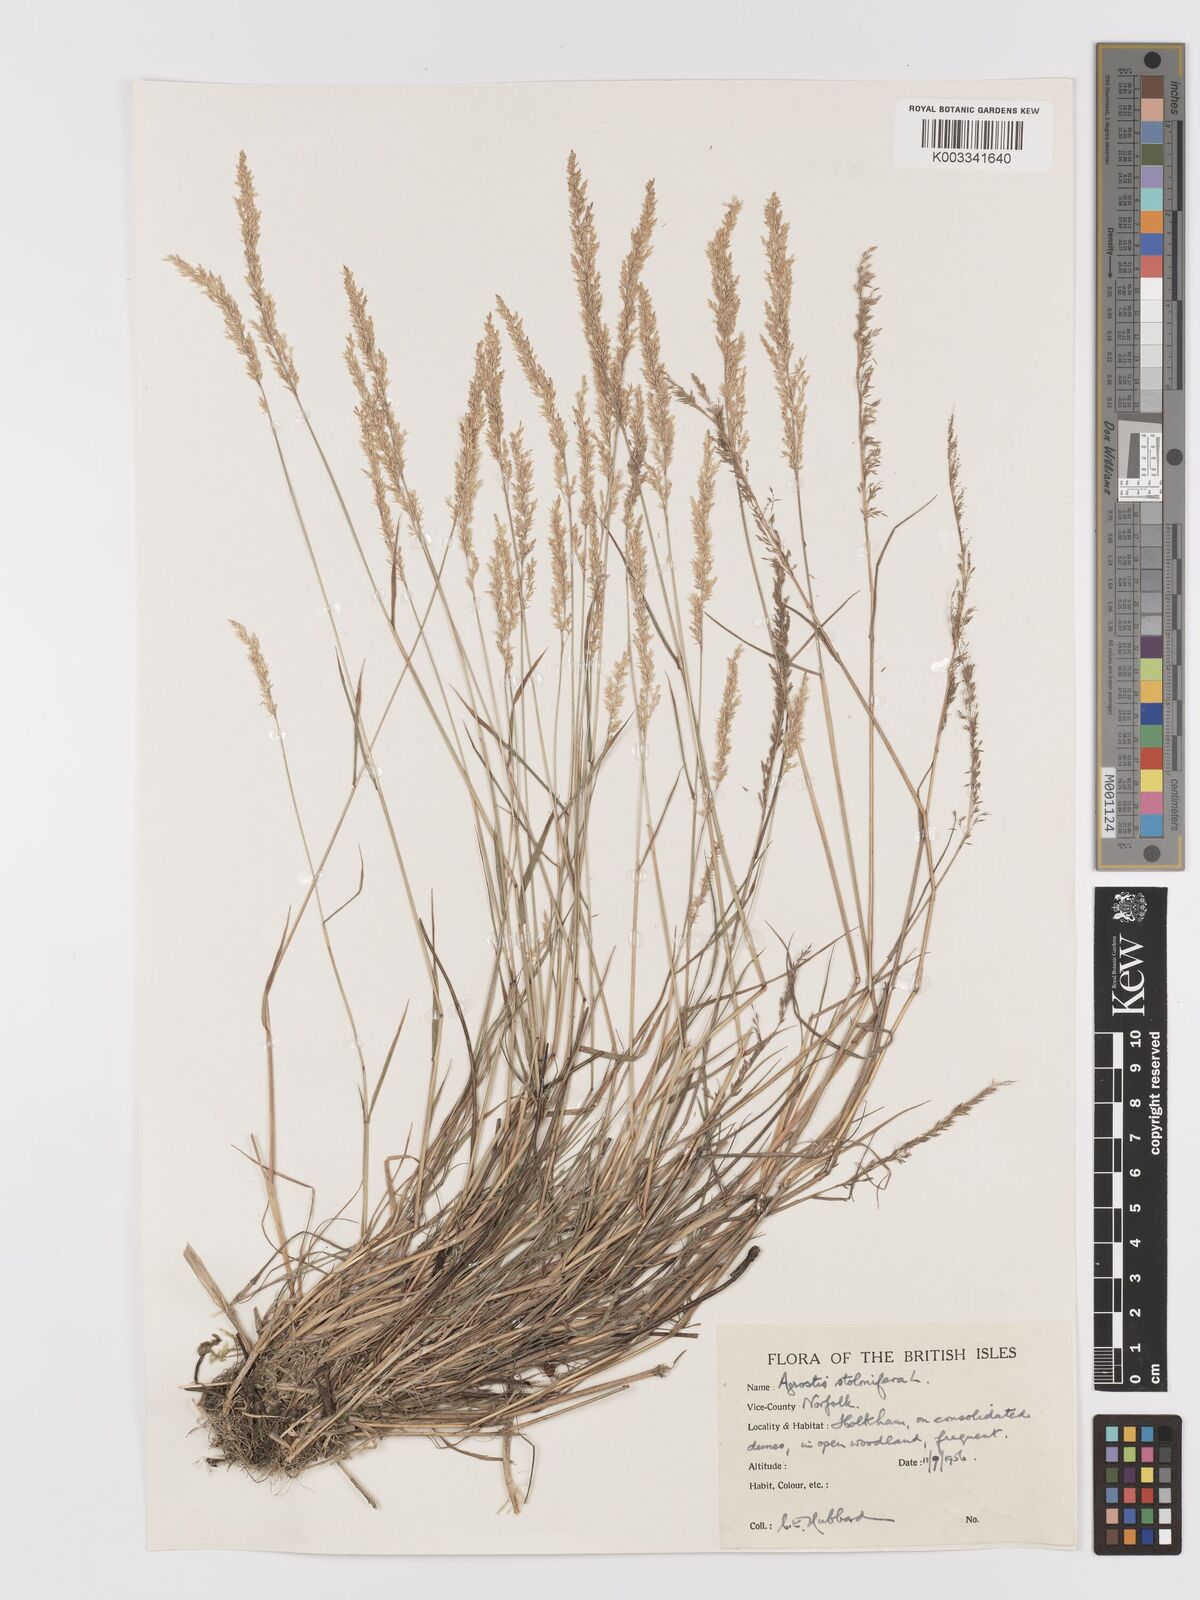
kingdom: Plantae
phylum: Tracheophyta
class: Liliopsida
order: Poales
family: Poaceae
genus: Agrostis
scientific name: Agrostis stolonifera
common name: Creeping bentgrass
